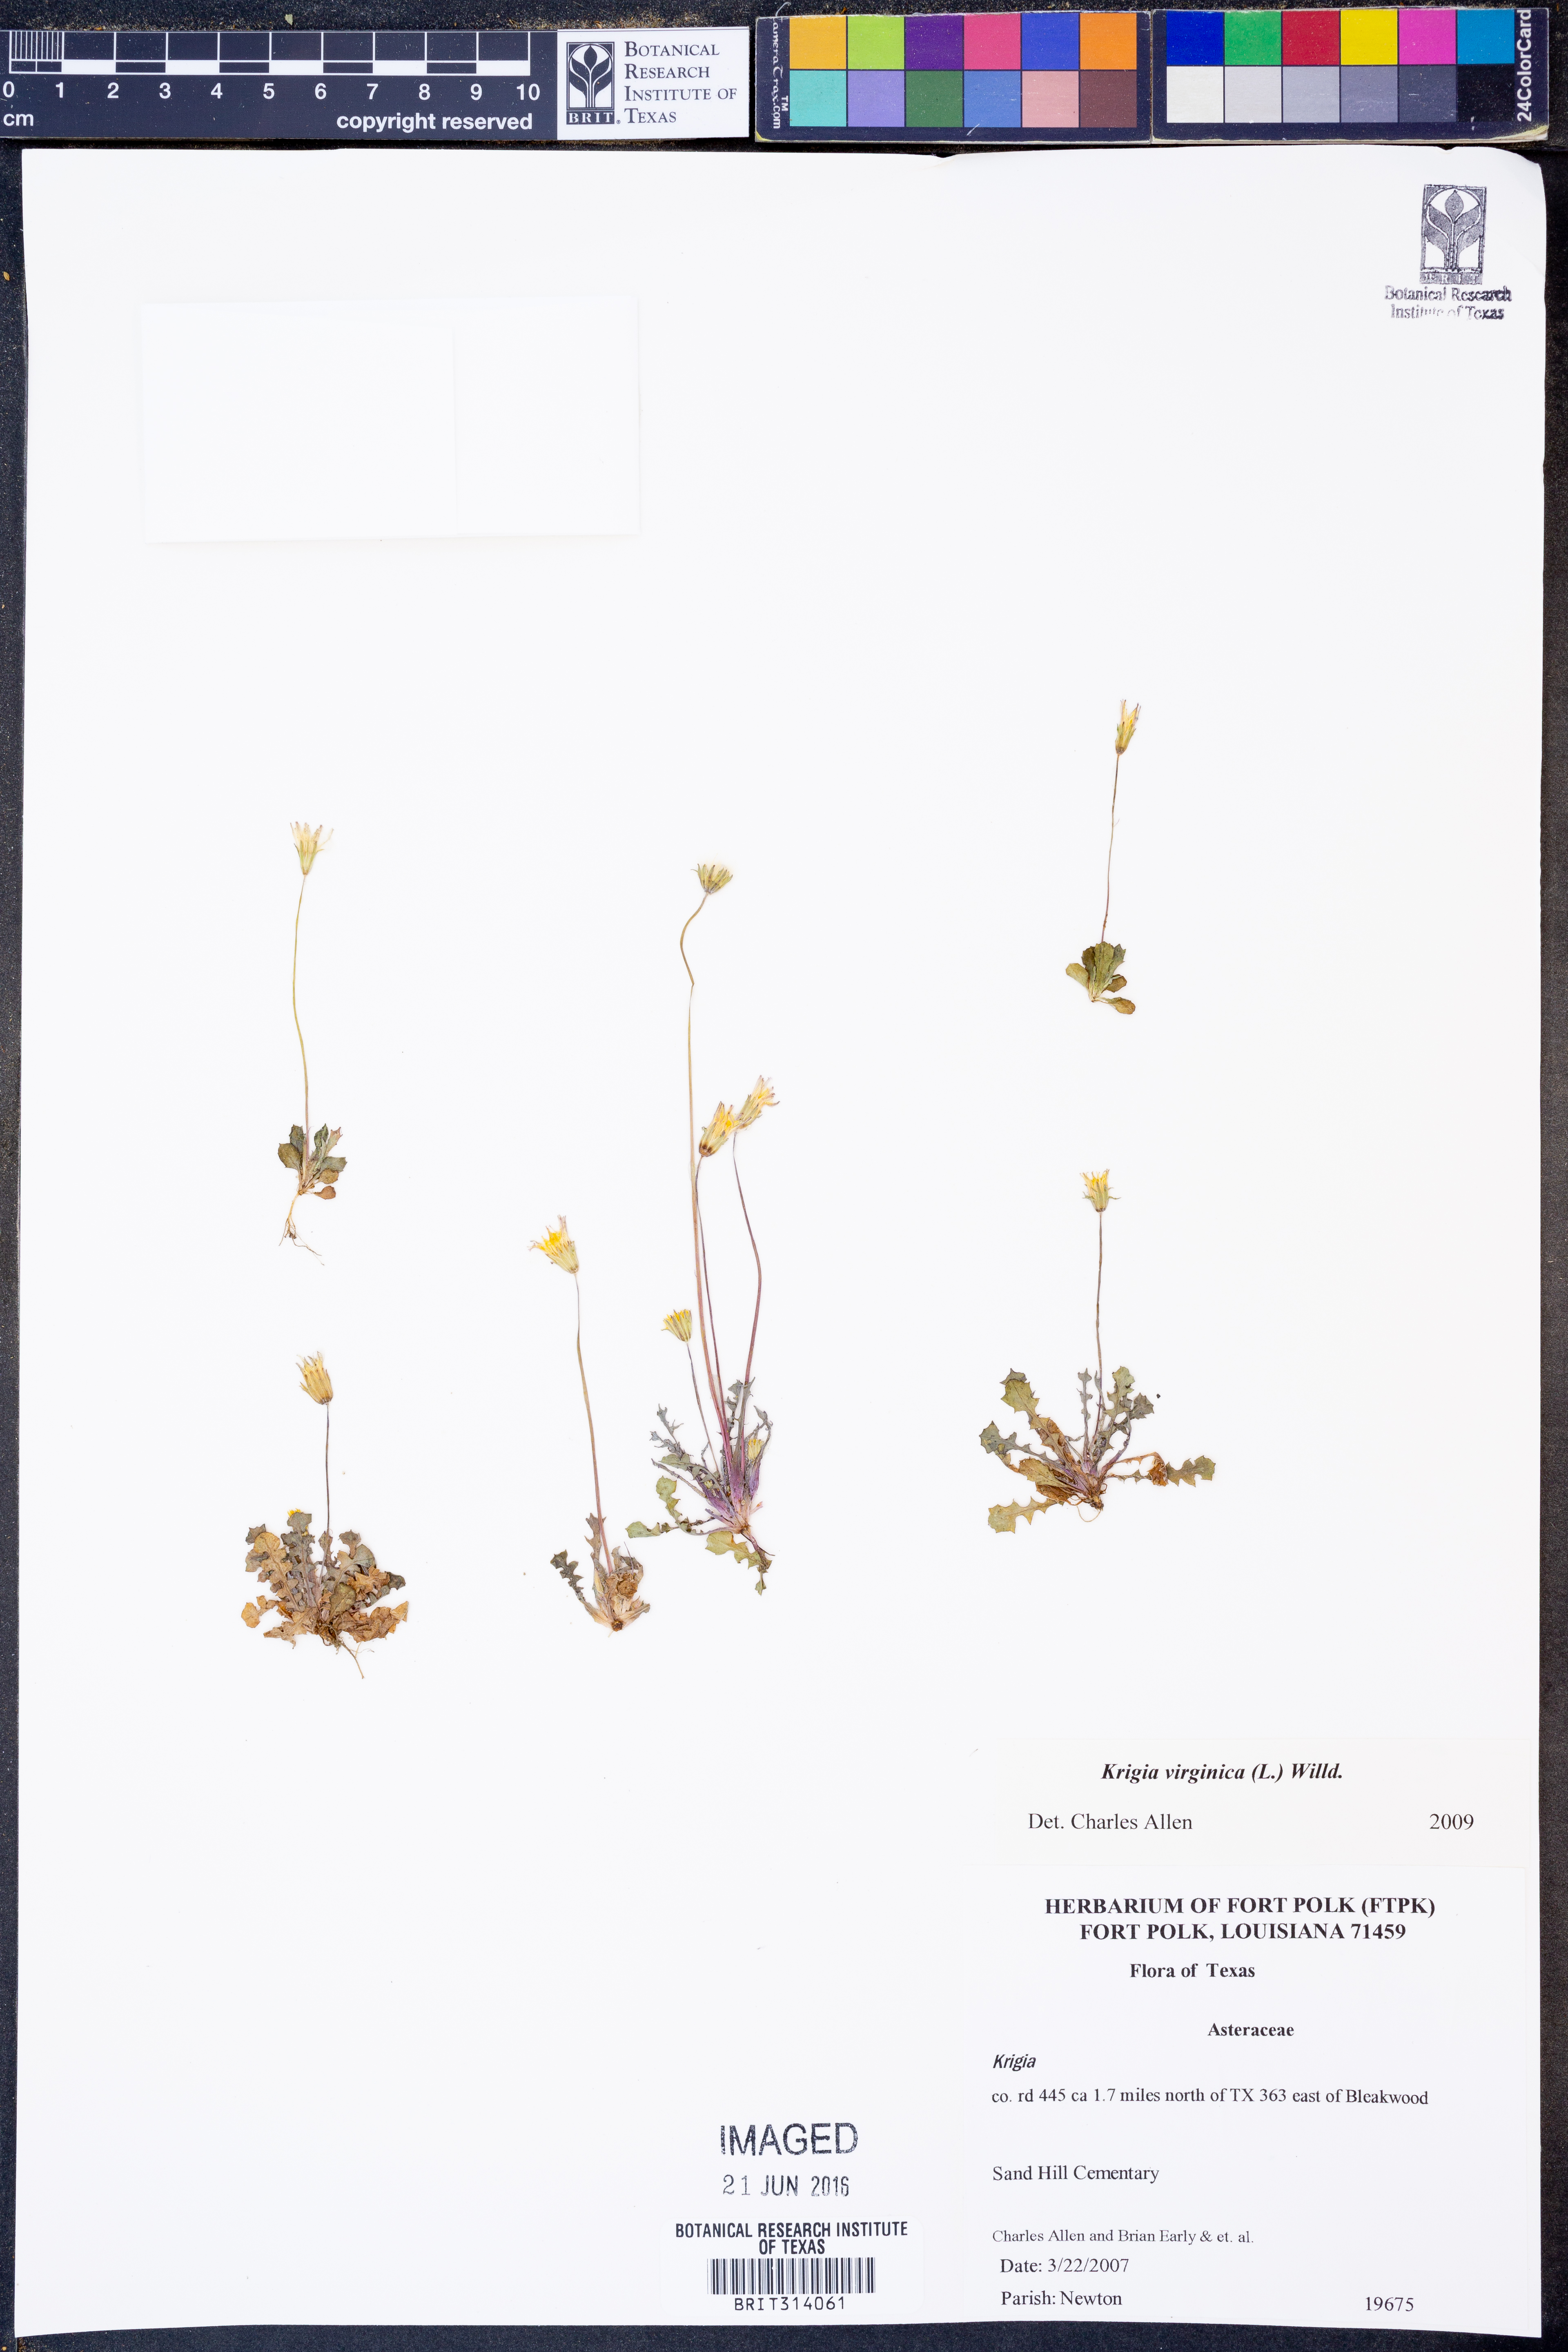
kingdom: Plantae
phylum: Tracheophyta
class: Magnoliopsida
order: Asterales
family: Asteraceae
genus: Krigia
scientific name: Krigia virginica
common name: Virginia dwarf-dandelion
